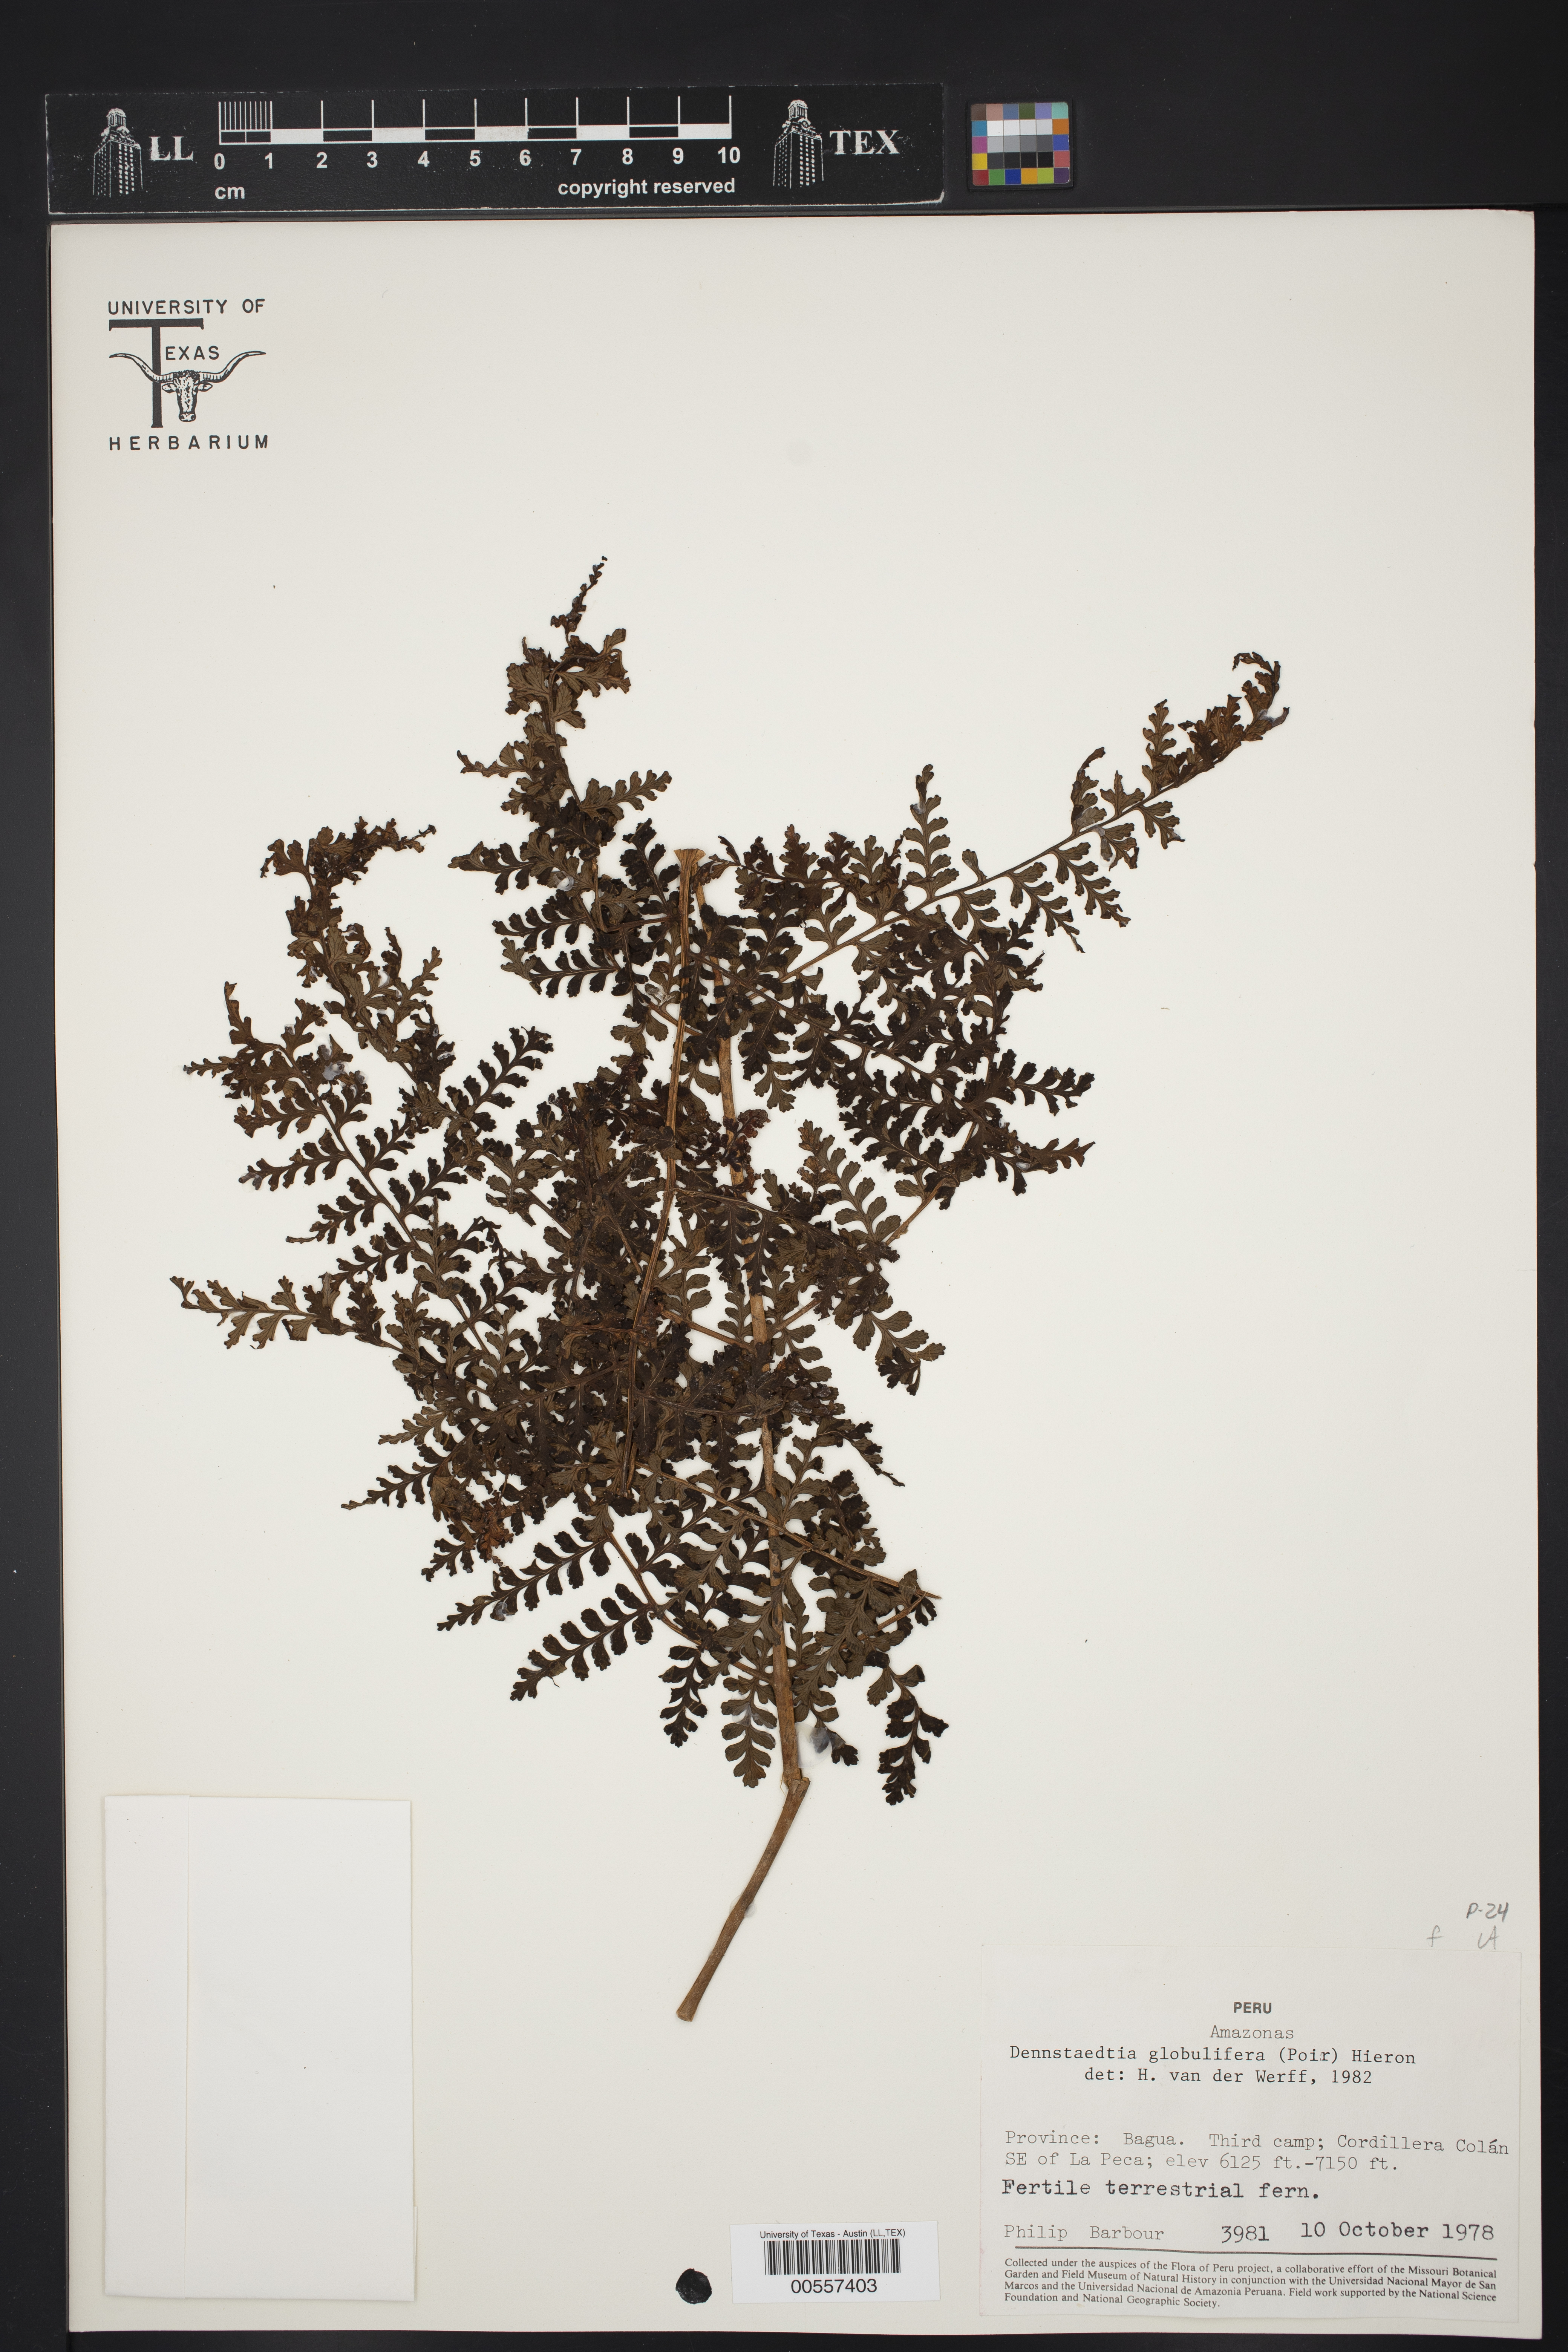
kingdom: Plantae
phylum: Tracheophyta
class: Polypodiopsida
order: Polypodiales
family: Dennstaedtiaceae
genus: Mucura
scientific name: Mucura globulifera
